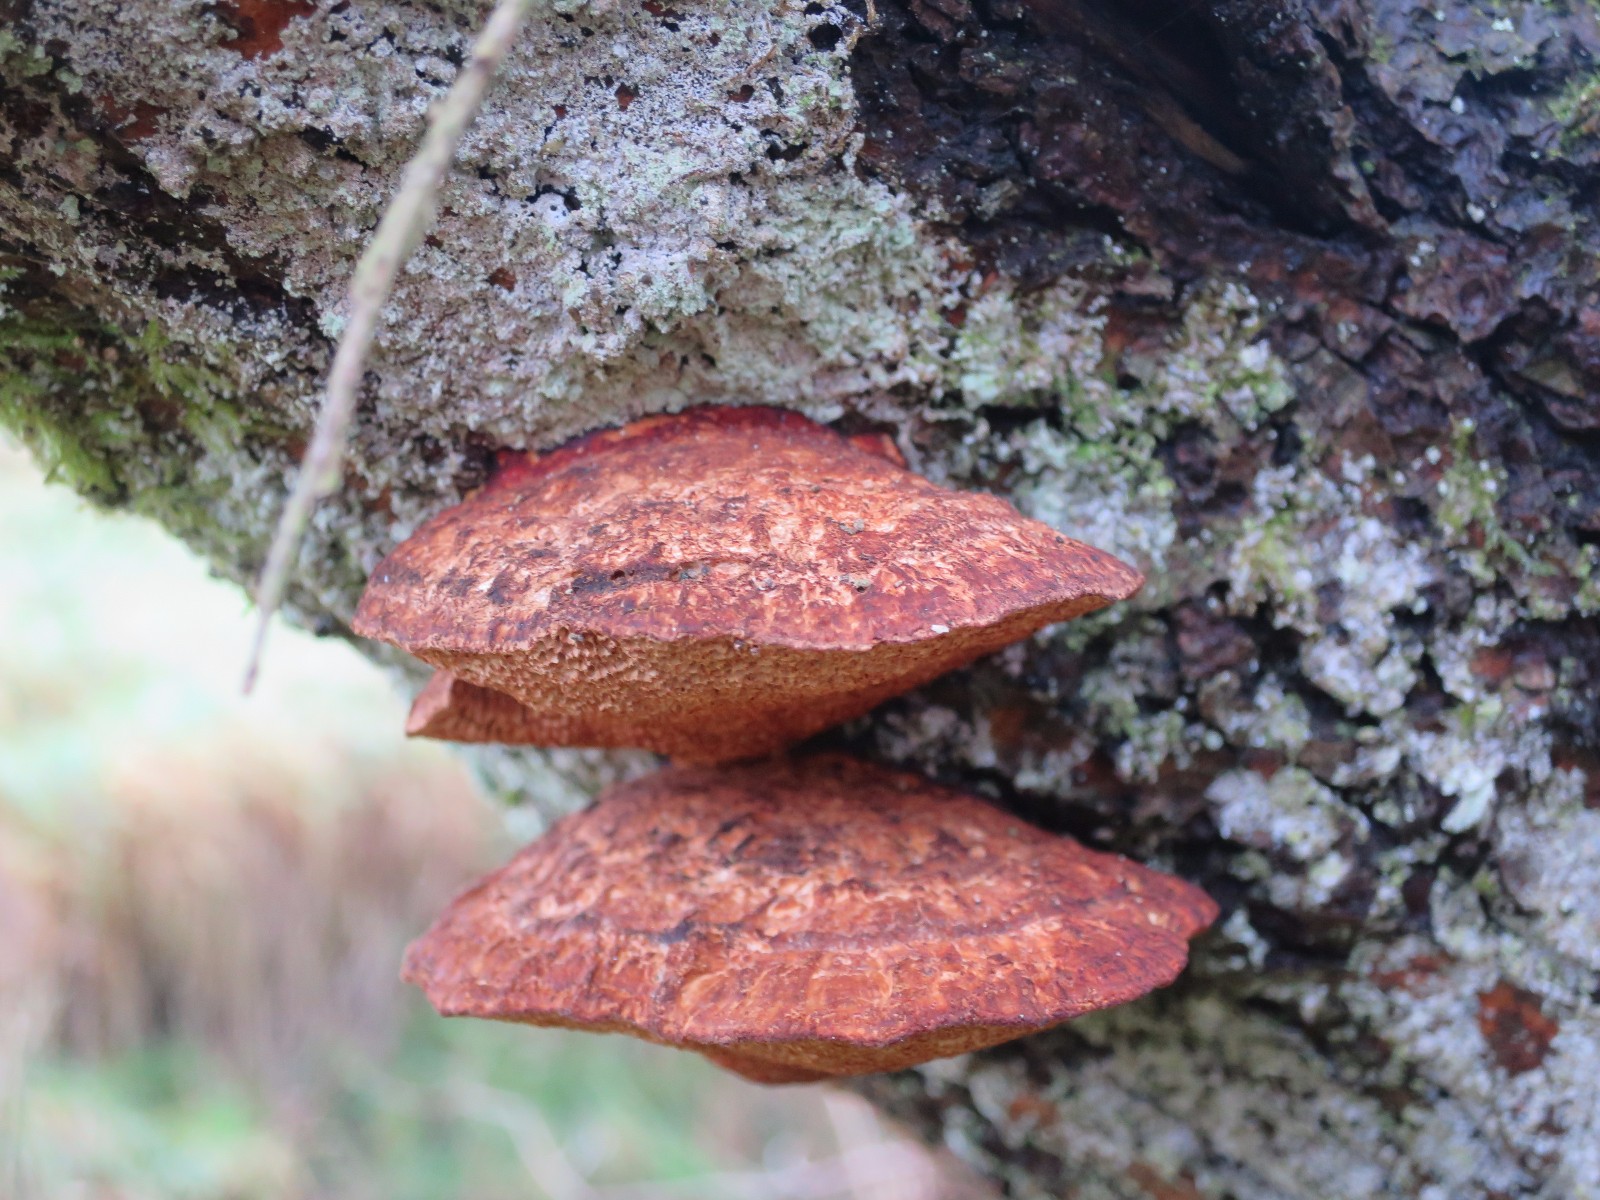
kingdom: Fungi
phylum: Basidiomycota
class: Agaricomycetes
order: Polyporales
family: Polyporaceae
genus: Daedaleopsis
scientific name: Daedaleopsis confragosa
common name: rødmende læderporesvamp
